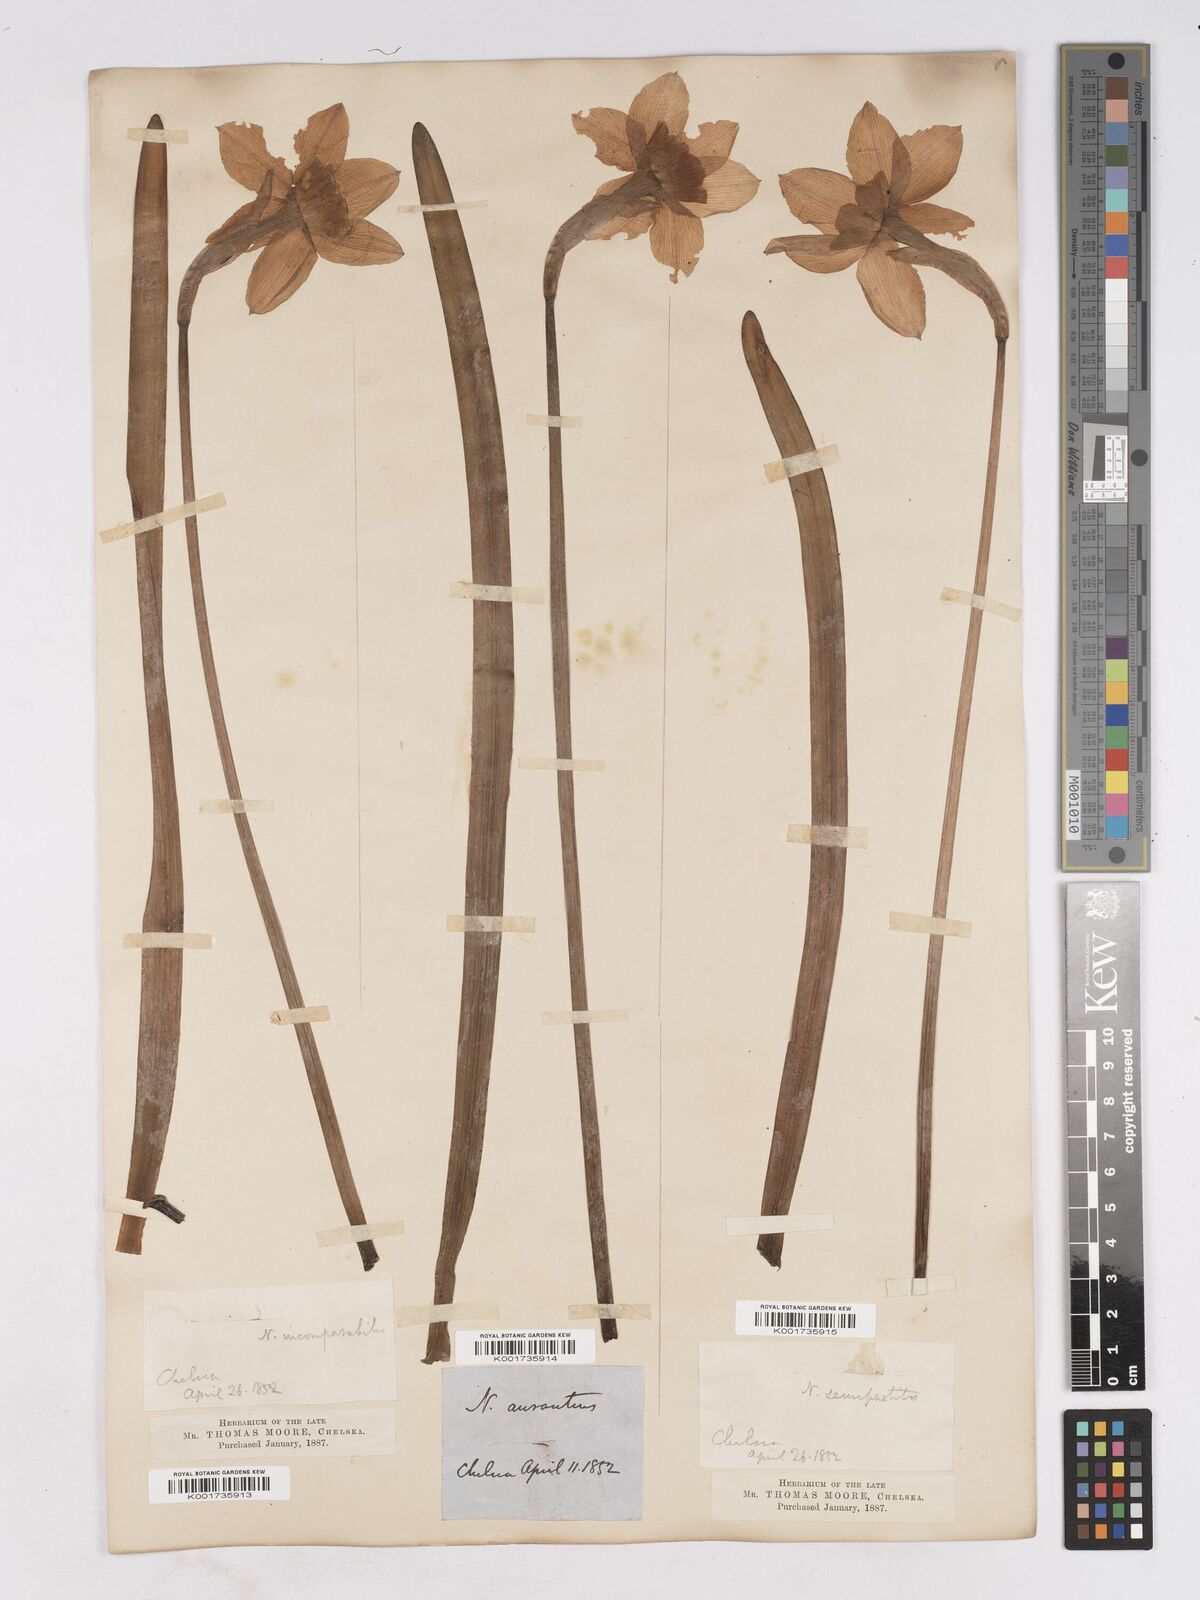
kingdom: Plantae
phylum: Tracheophyta
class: Liliopsida
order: Asparagales
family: Amaryllidaceae
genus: Narcissus
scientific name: Narcissus incomparabilis
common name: Nonesuch daffodil
